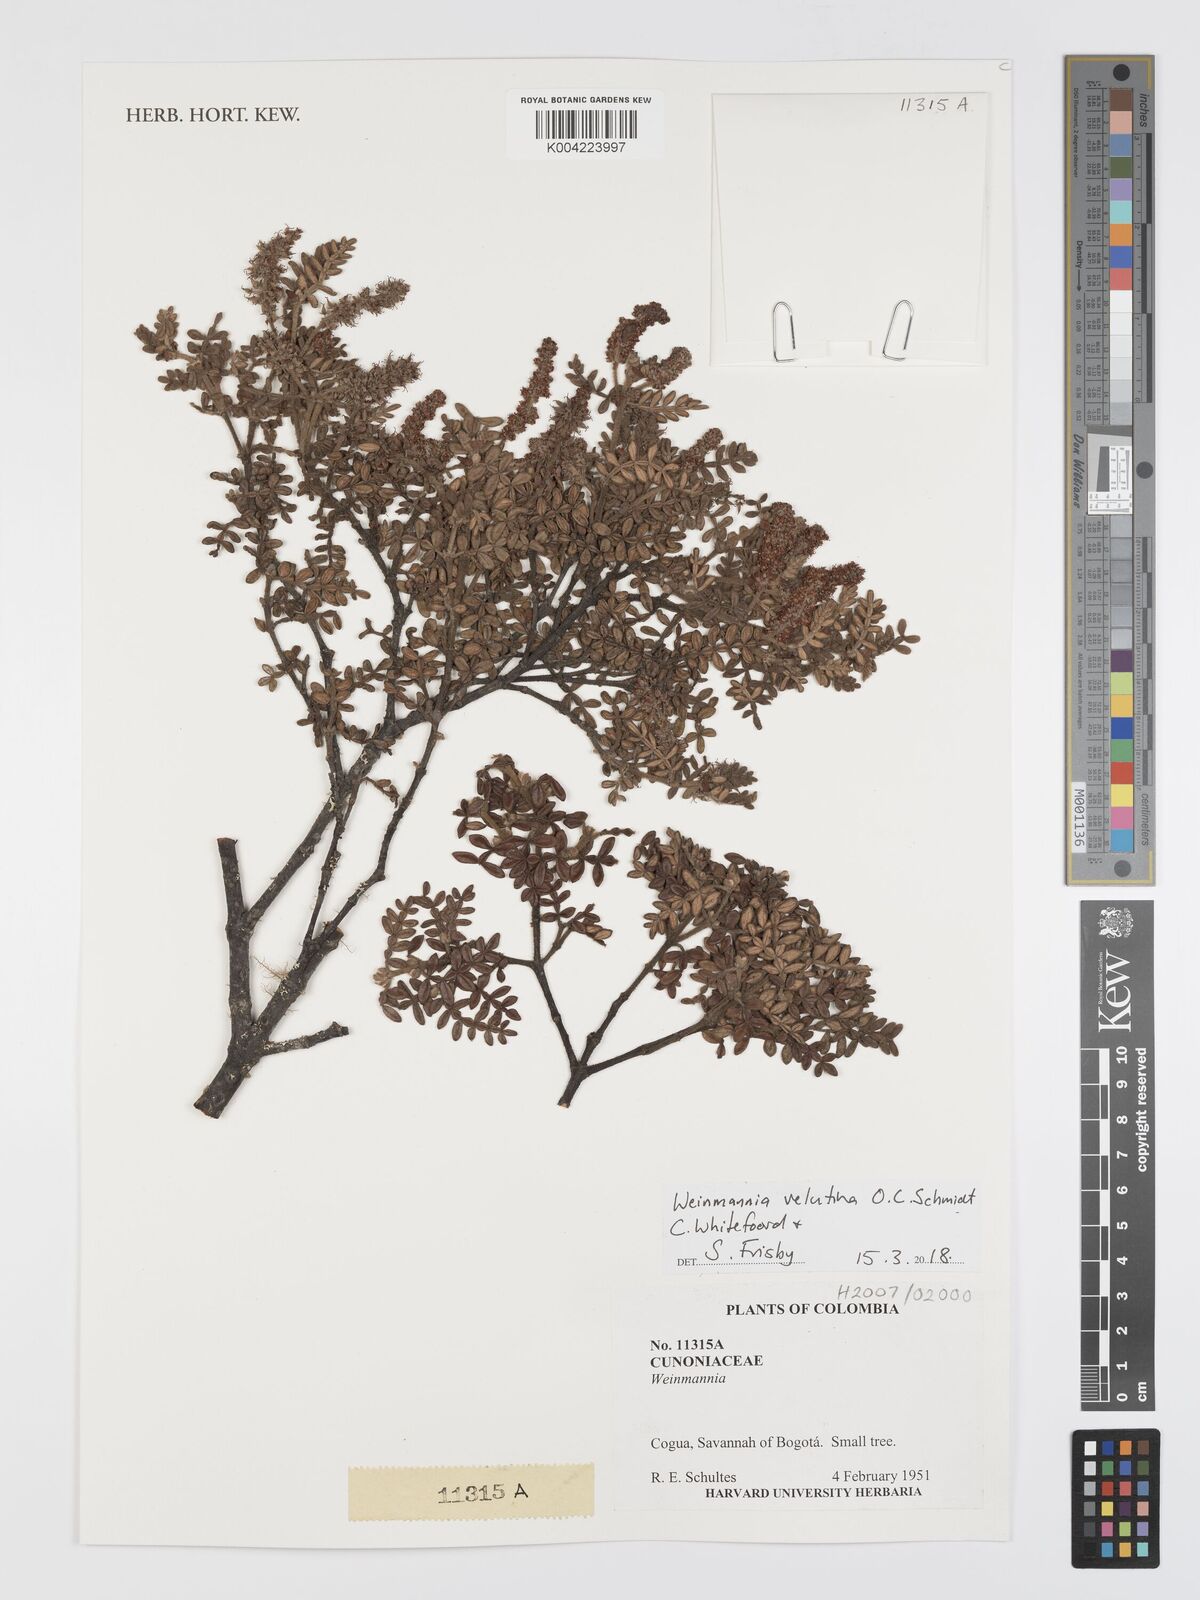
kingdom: Plantae
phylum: Tracheophyta
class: Magnoliopsida
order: Oxalidales
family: Cunoniaceae
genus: Weinmannia
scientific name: Weinmannia velutina
